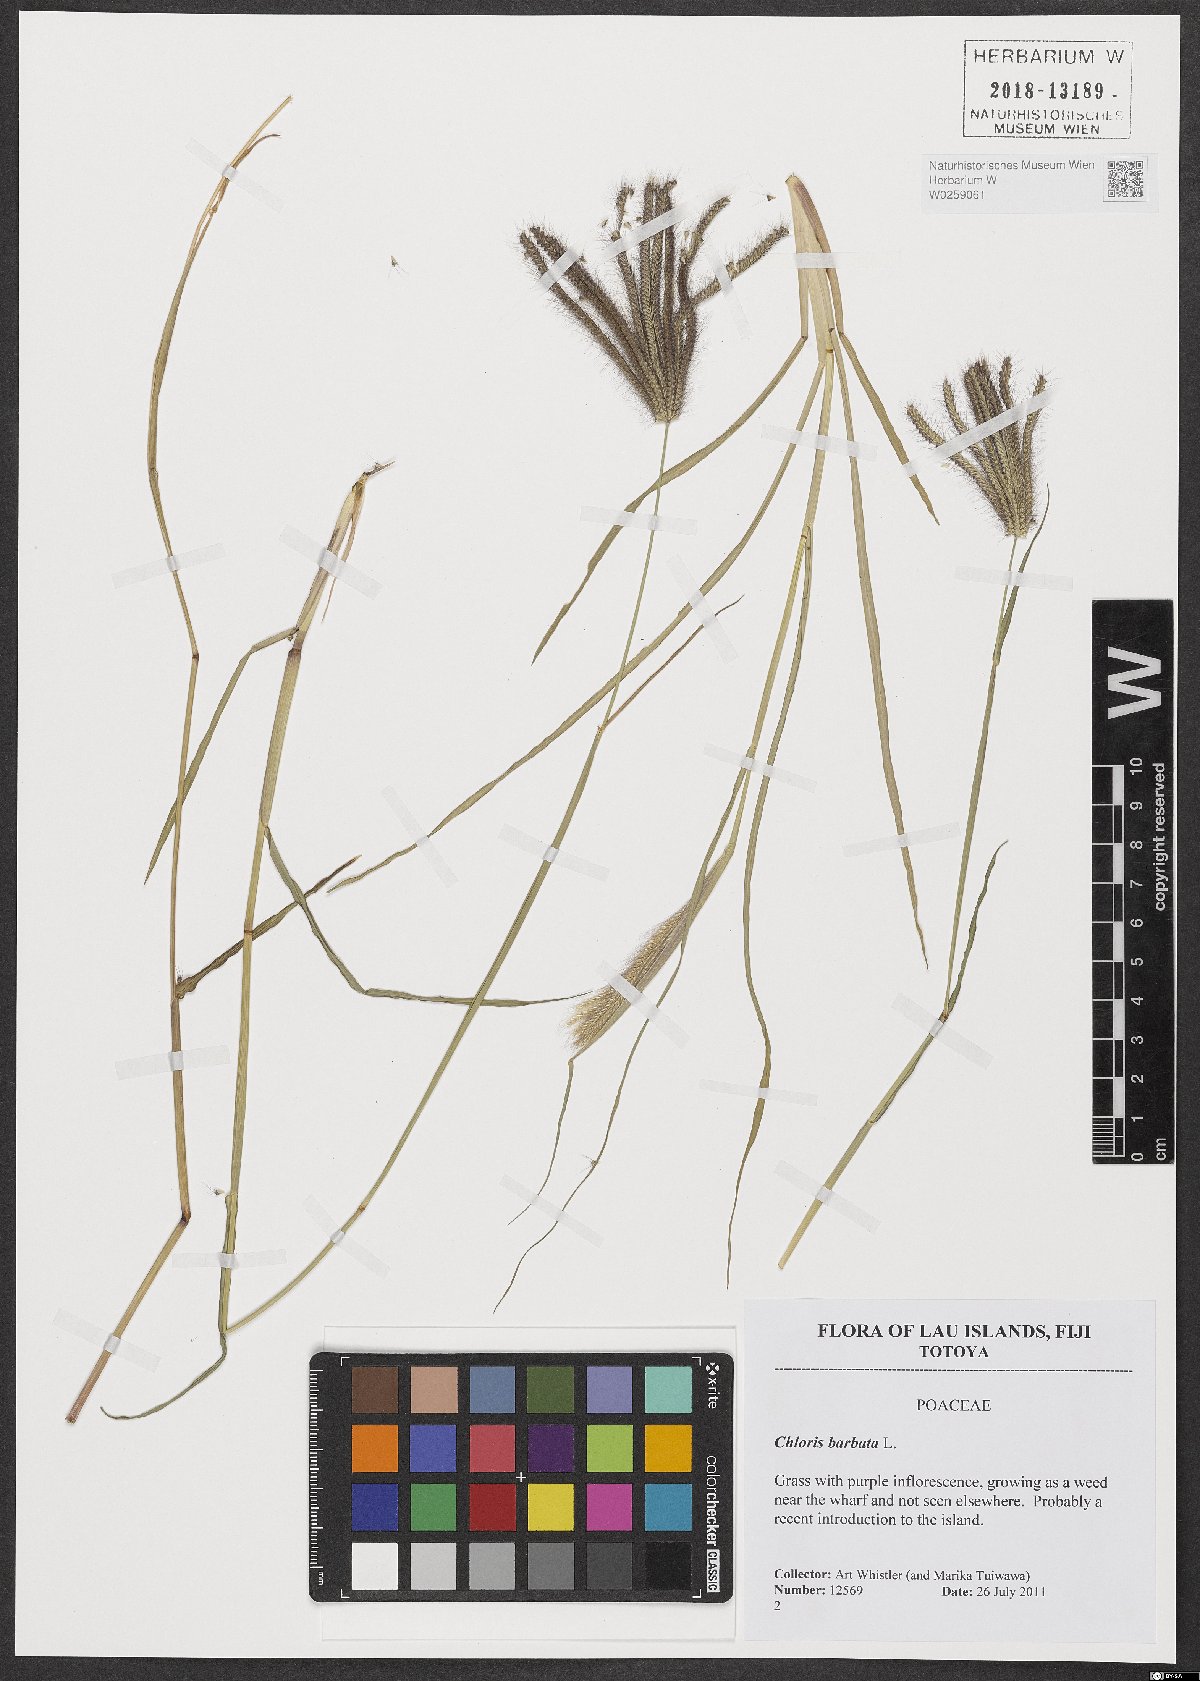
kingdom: Plantae
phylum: Tracheophyta
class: Liliopsida
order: Poales
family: Poaceae
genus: Chloris
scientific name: Chloris barbata
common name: Swollen fingergrass
